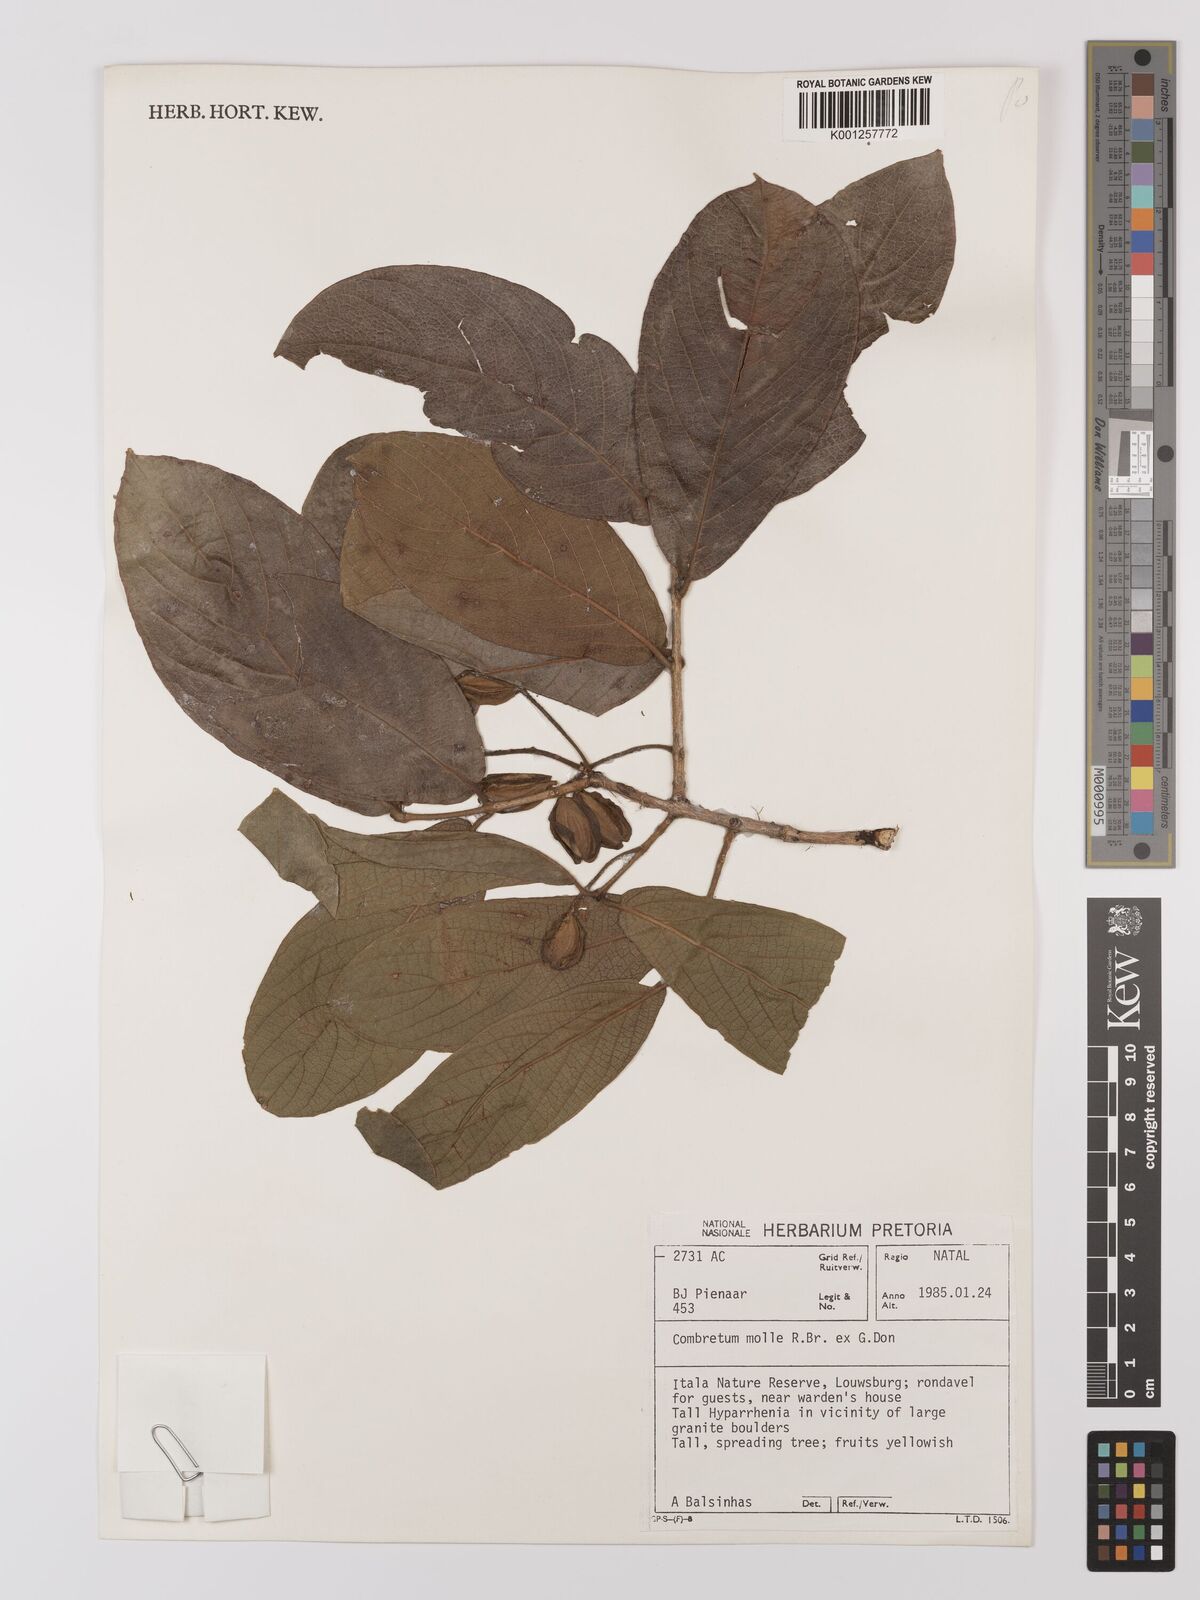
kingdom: Plantae
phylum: Tracheophyta
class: Magnoliopsida
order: Myrtales
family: Combretaceae
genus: Combretum
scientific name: Combretum molle
